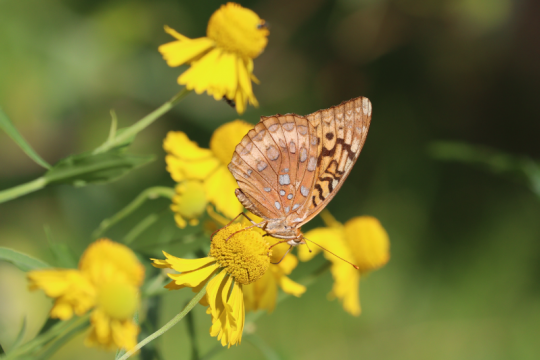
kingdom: Animalia
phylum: Arthropoda
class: Insecta
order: Lepidoptera
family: Nymphalidae
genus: Speyeria
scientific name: Speyeria cybele
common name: Great Spangled Fritillary
